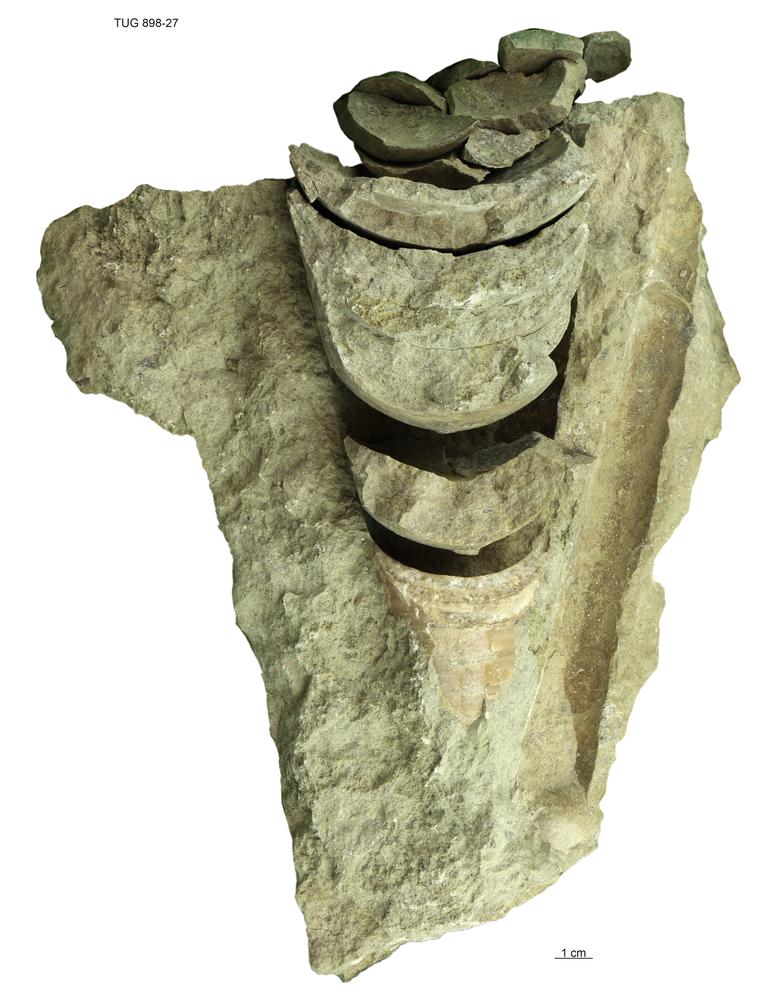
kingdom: Animalia
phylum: Mollusca
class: Cephalopoda
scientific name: Cephalopoda
